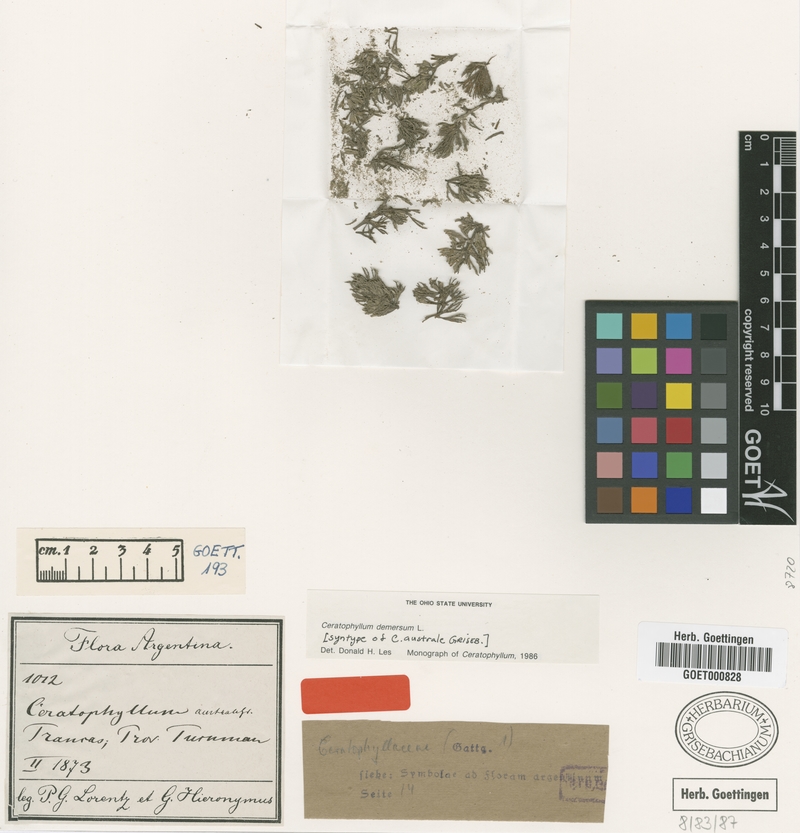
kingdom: Plantae
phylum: Tracheophyta
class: Magnoliopsida
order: Ceratophyllales
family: Ceratophyllaceae
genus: Ceratophyllum
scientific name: Ceratophyllum demersum
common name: Rigid hornwort
